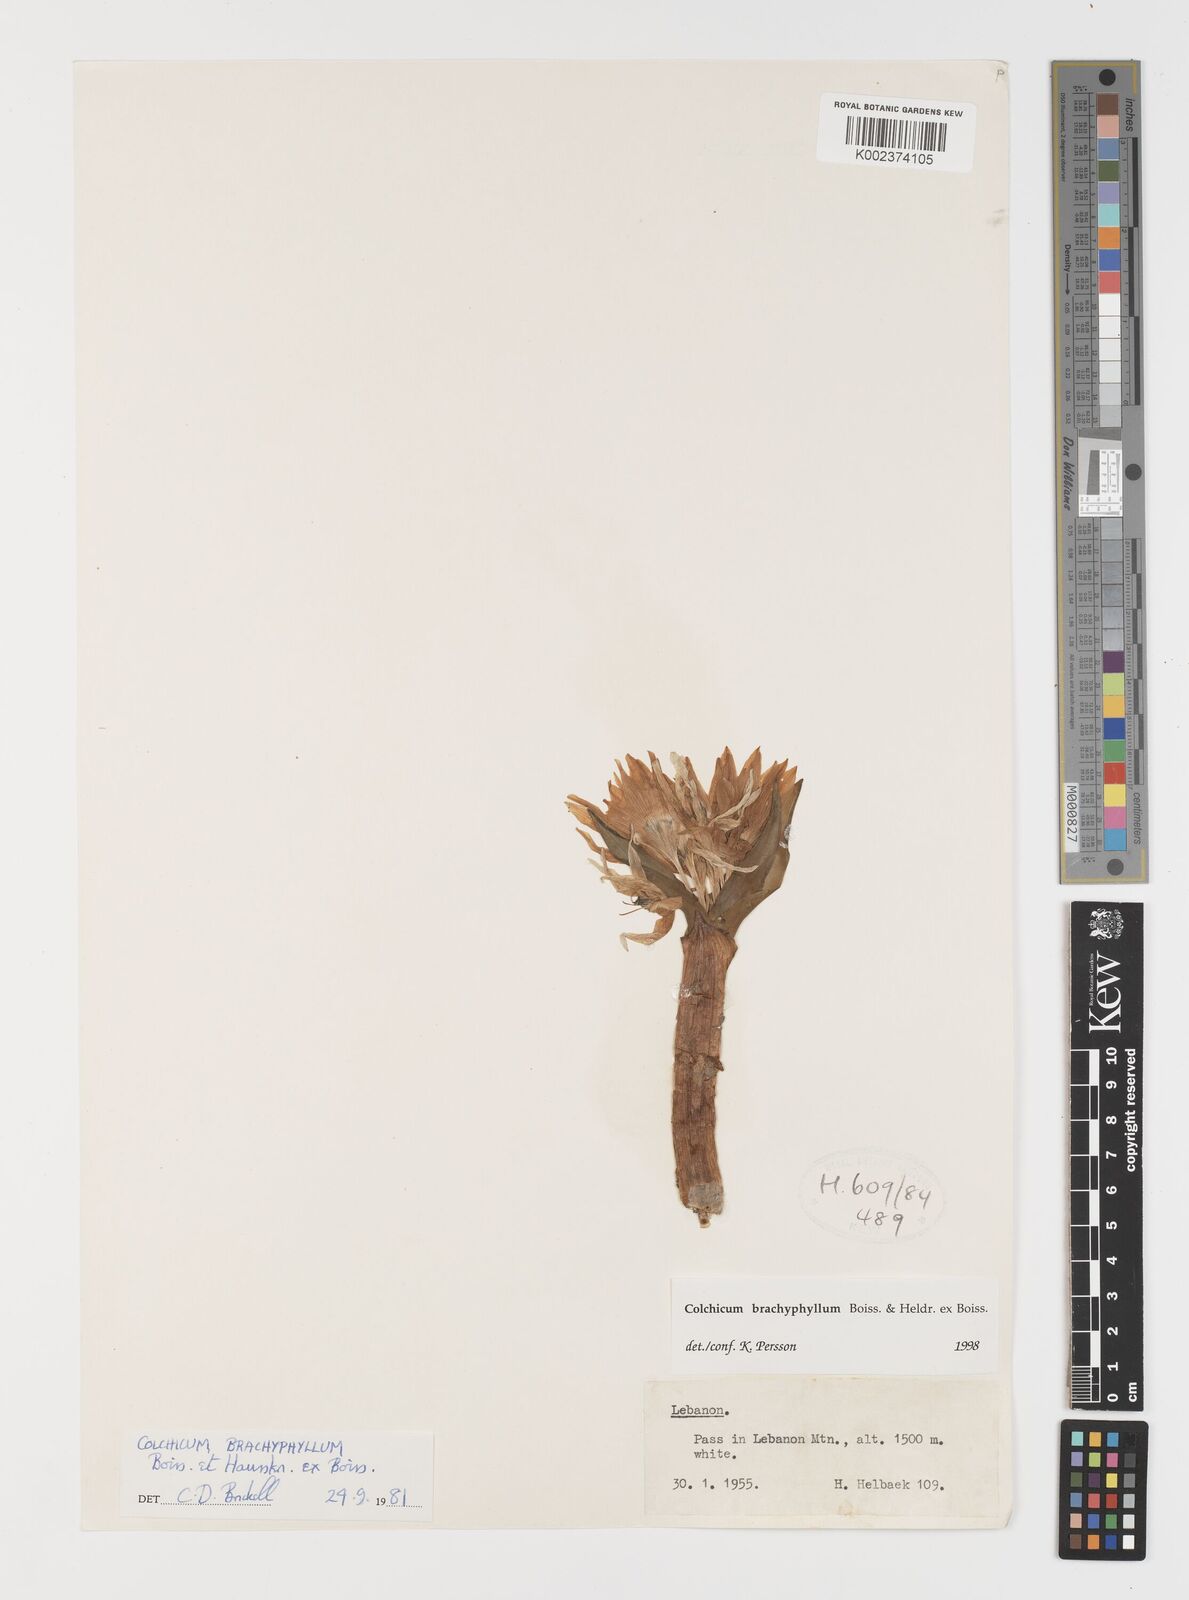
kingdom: Plantae
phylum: Tracheophyta
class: Liliopsida
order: Liliales
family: Colchicaceae
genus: Colchicum
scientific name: Colchicum szovitsii
